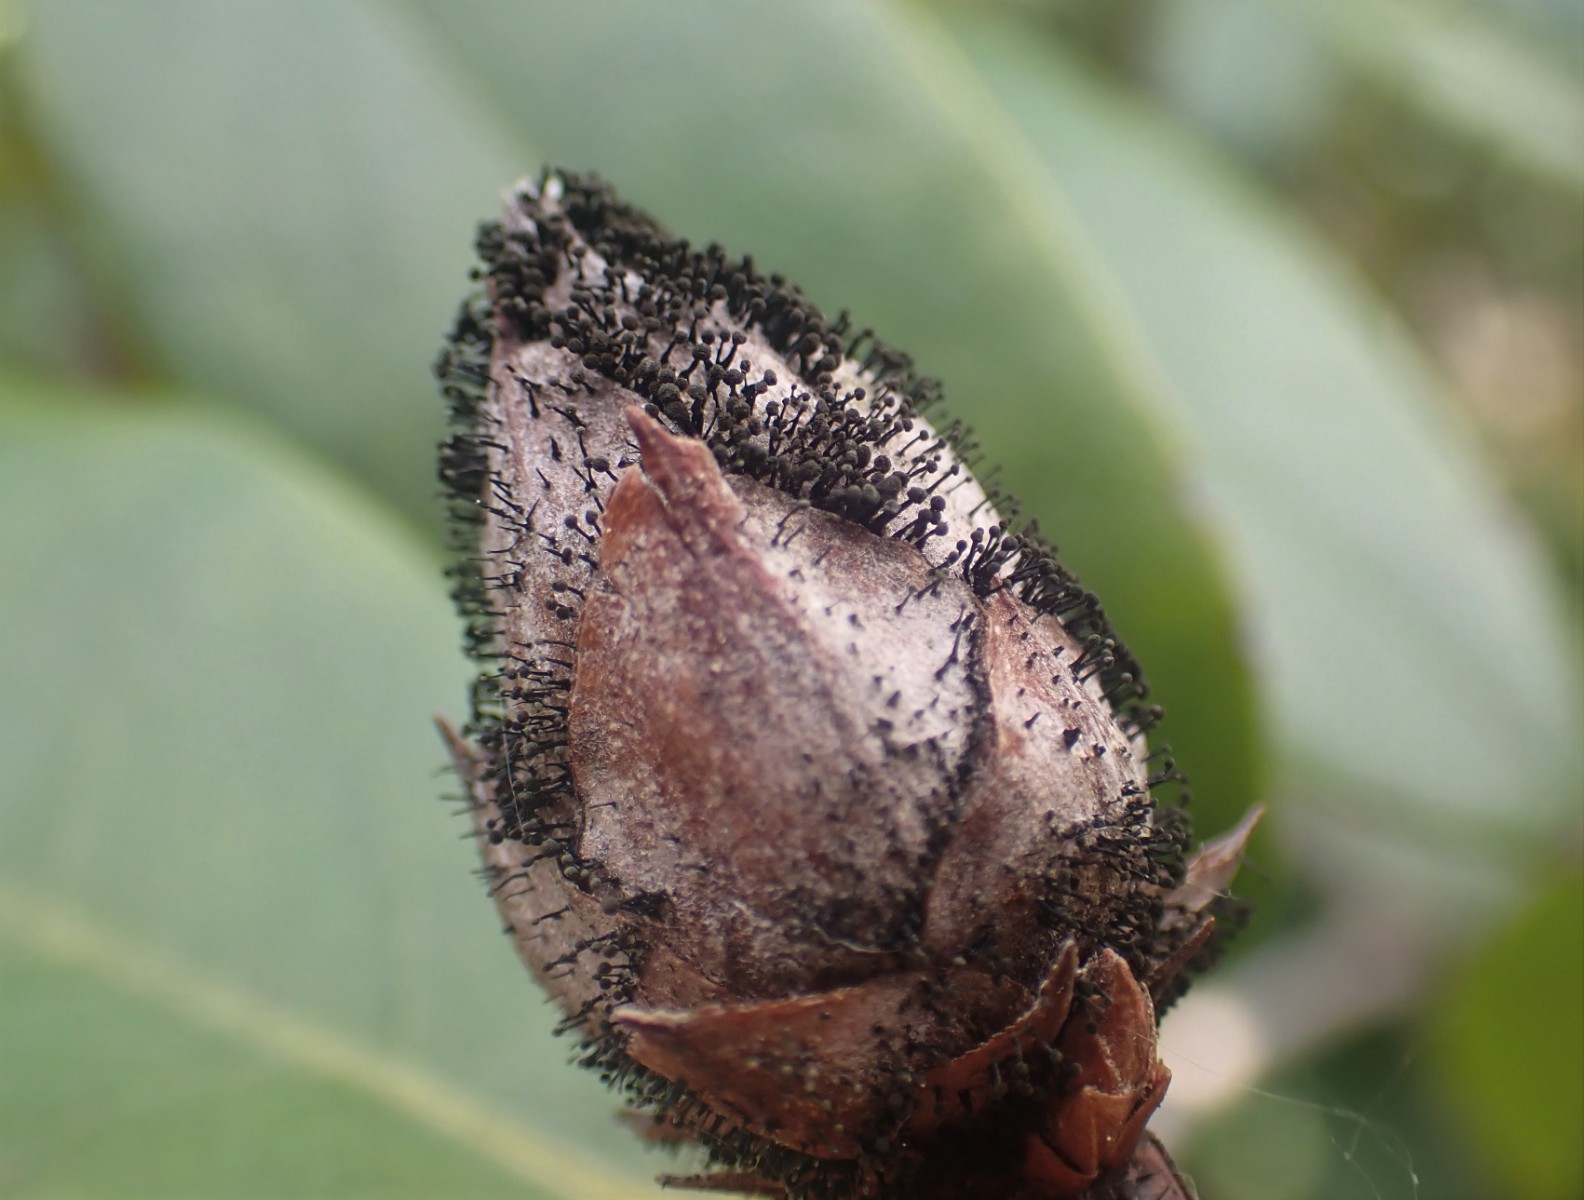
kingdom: Fungi
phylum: Ascomycota
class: Dothideomycetes
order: Pleosporales
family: Melanommataceae
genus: Seifertia
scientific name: Seifertia azaleae
